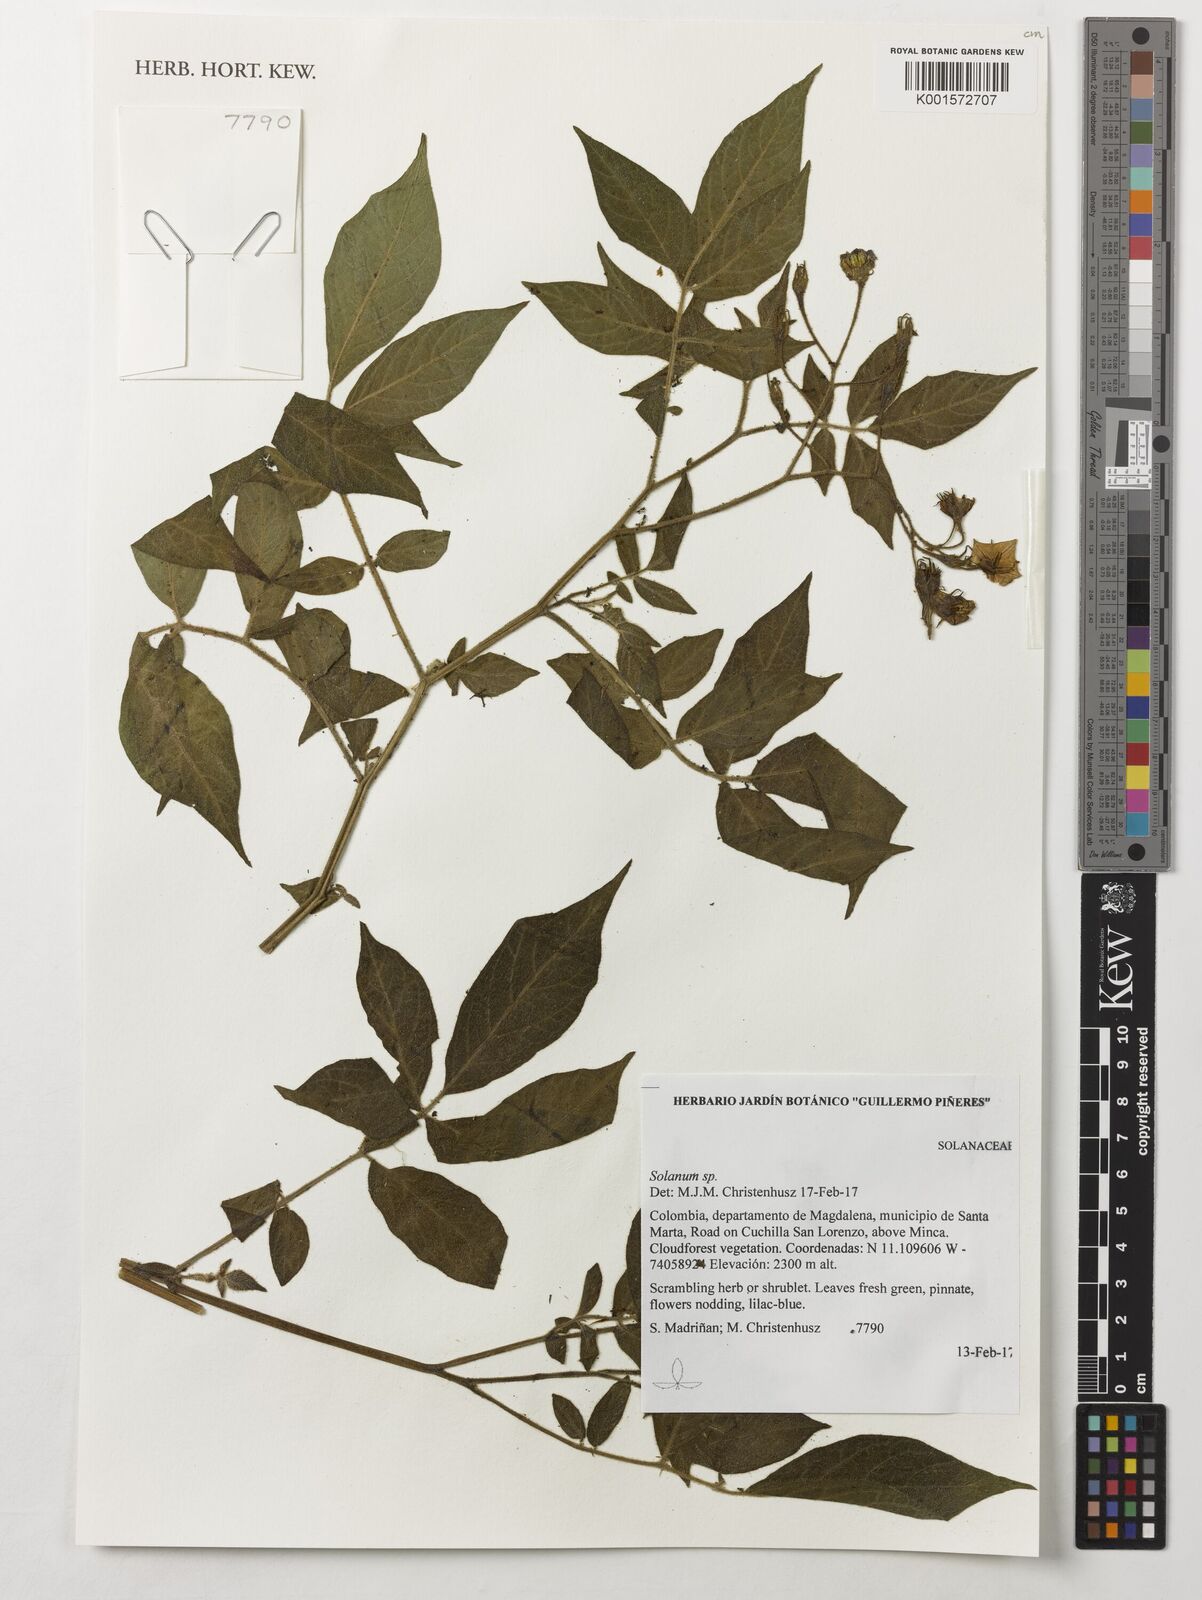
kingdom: Plantae
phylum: Tracheophyta
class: Magnoliopsida
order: Solanales
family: Solanaceae
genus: Solanum
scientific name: Solanum
